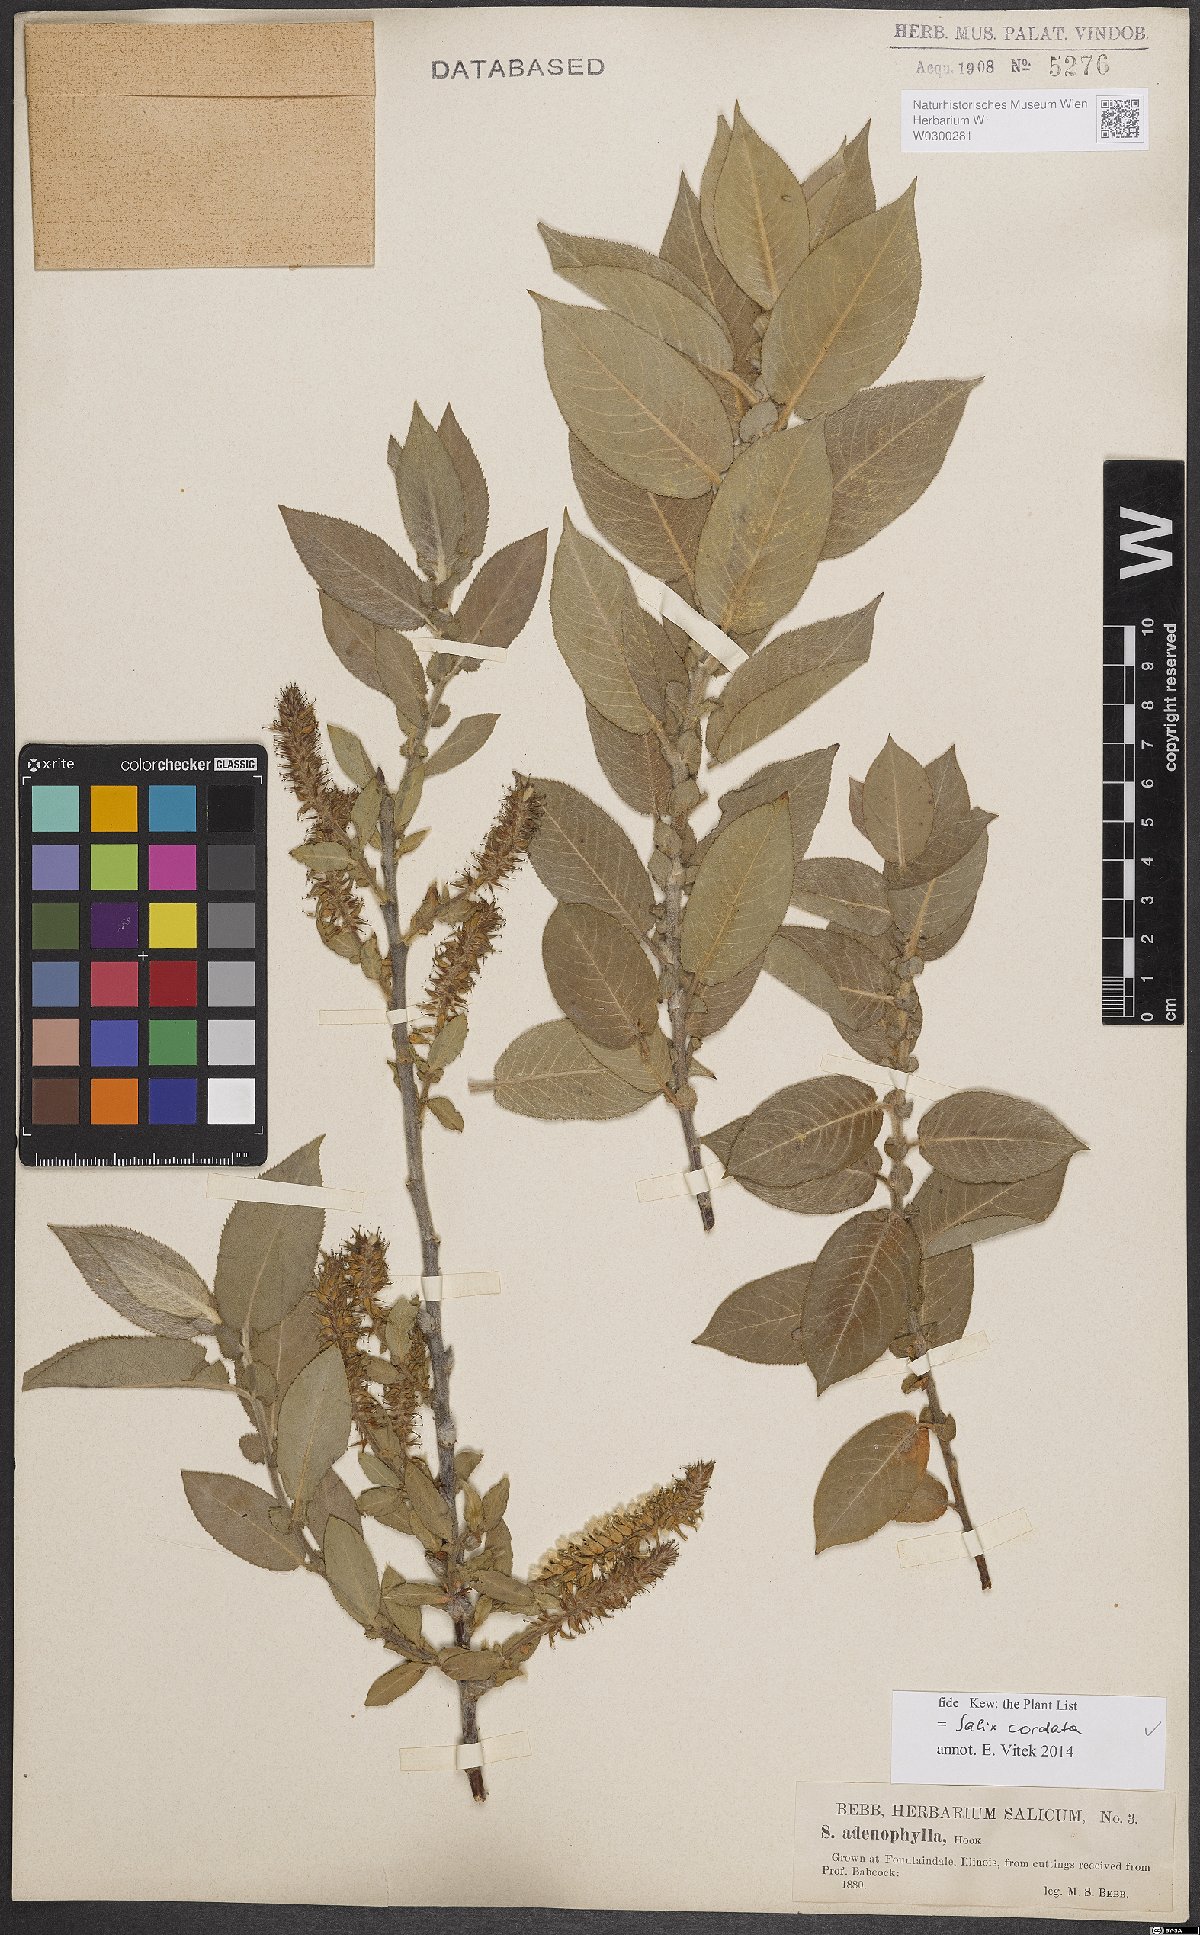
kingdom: Plantae
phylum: Tracheophyta
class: Magnoliopsida
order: Malpighiales
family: Salicaceae
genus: Salix
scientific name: Salix cordata
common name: Heart-leaf willow
